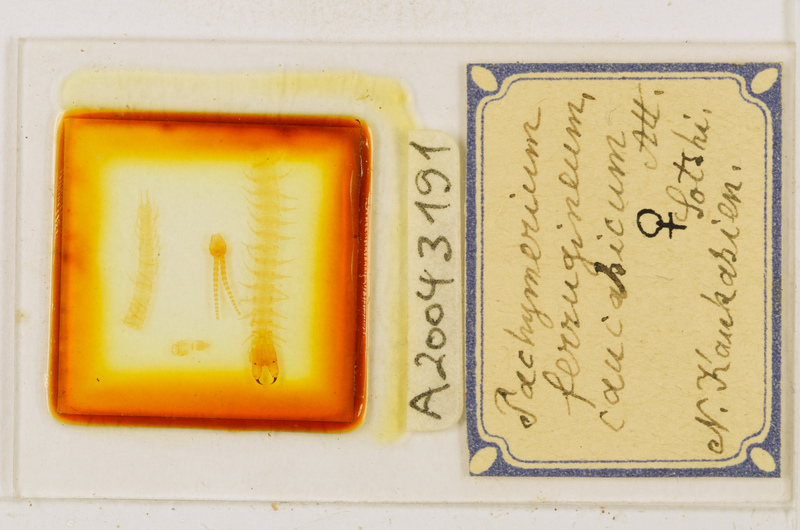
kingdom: Animalia
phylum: Arthropoda
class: Chilopoda
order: Geophilomorpha
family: Geophilidae
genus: Pachymerium
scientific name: Pachymerium ferrugineum
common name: Centipede
